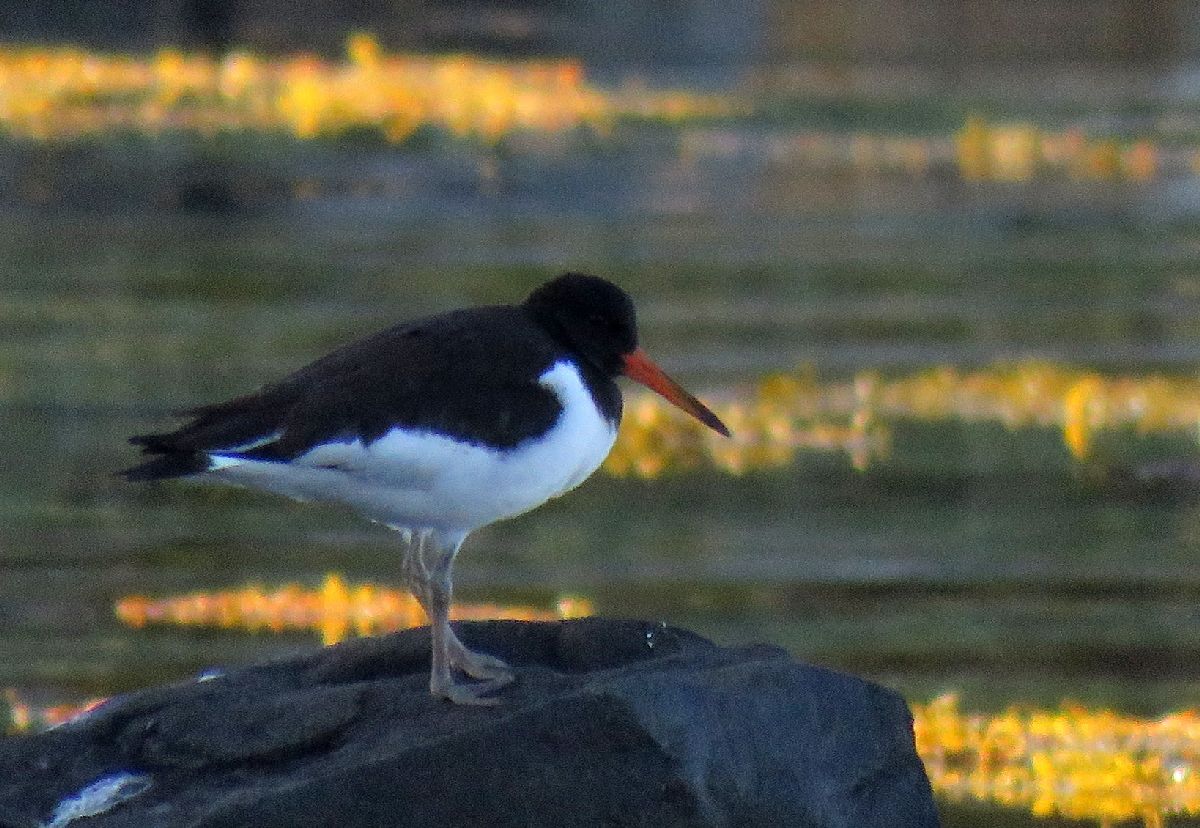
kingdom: Animalia
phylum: Chordata
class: Aves
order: Charadriiformes
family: Haematopodidae
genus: Haematopus
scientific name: Haematopus ostralegus
